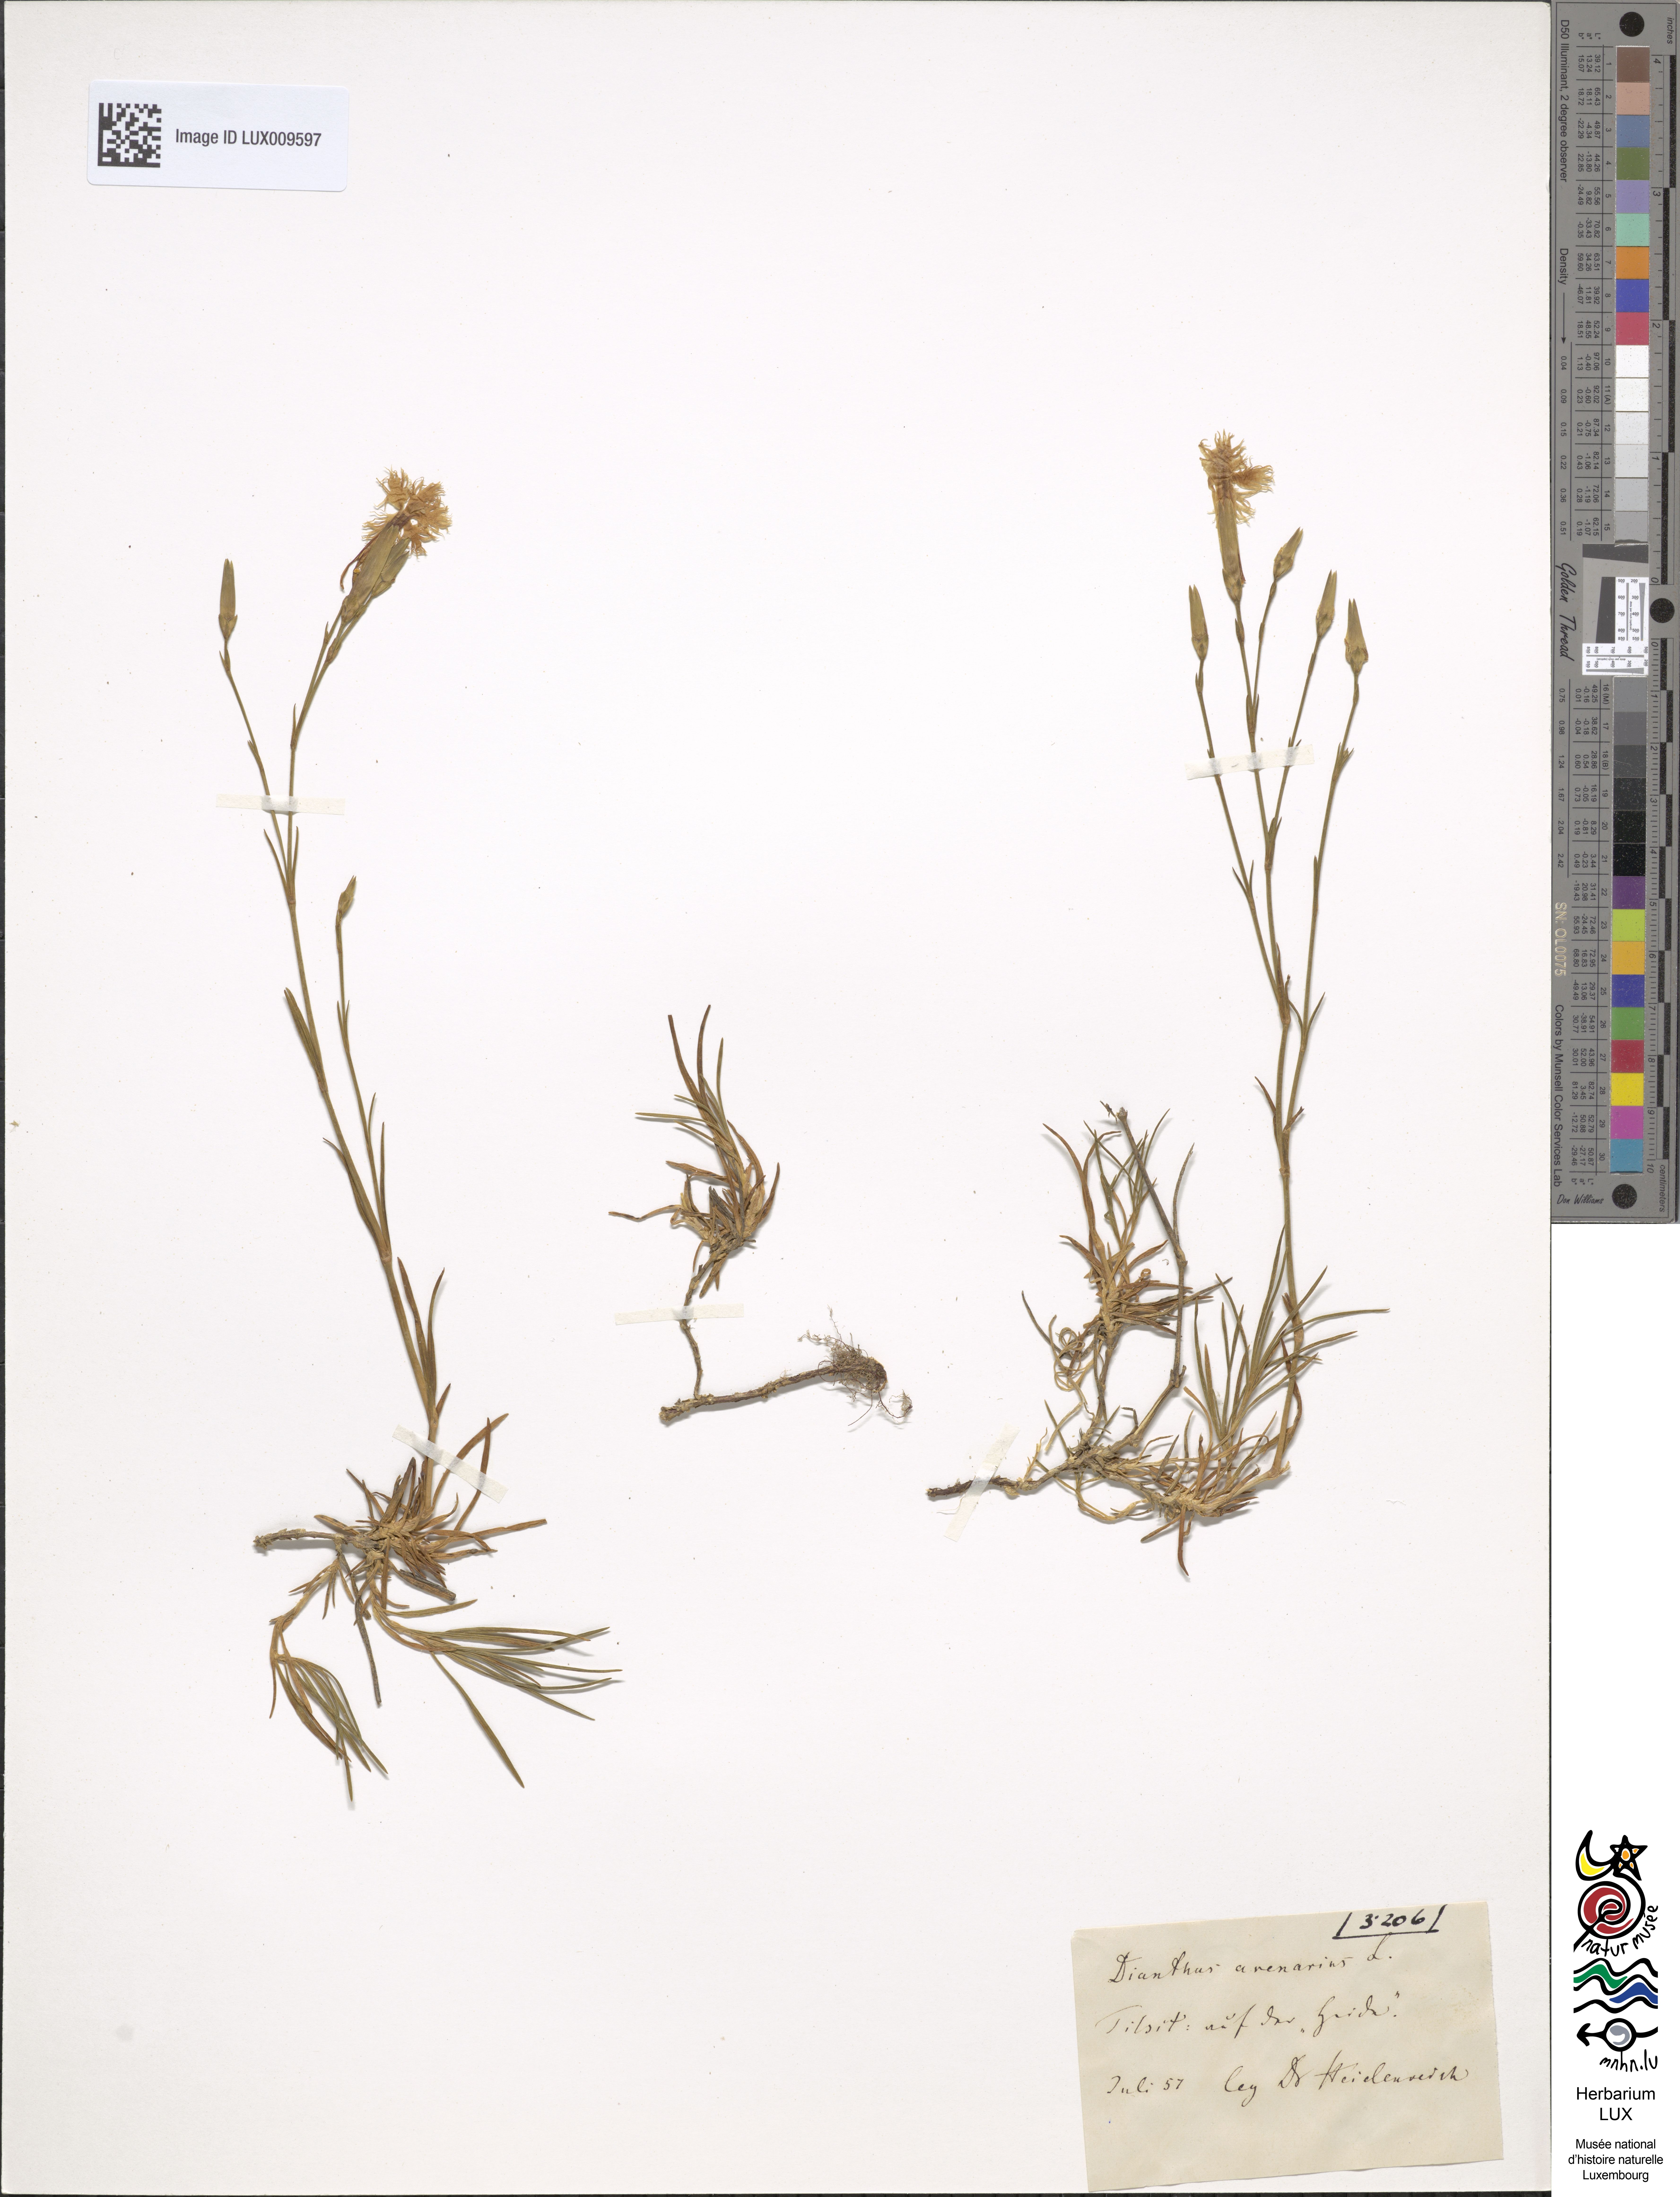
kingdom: Plantae
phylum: Tracheophyta
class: Magnoliopsida
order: Caryophyllales
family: Caryophyllaceae
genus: Dianthus
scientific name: Dianthus arenarius
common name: Stone pink
